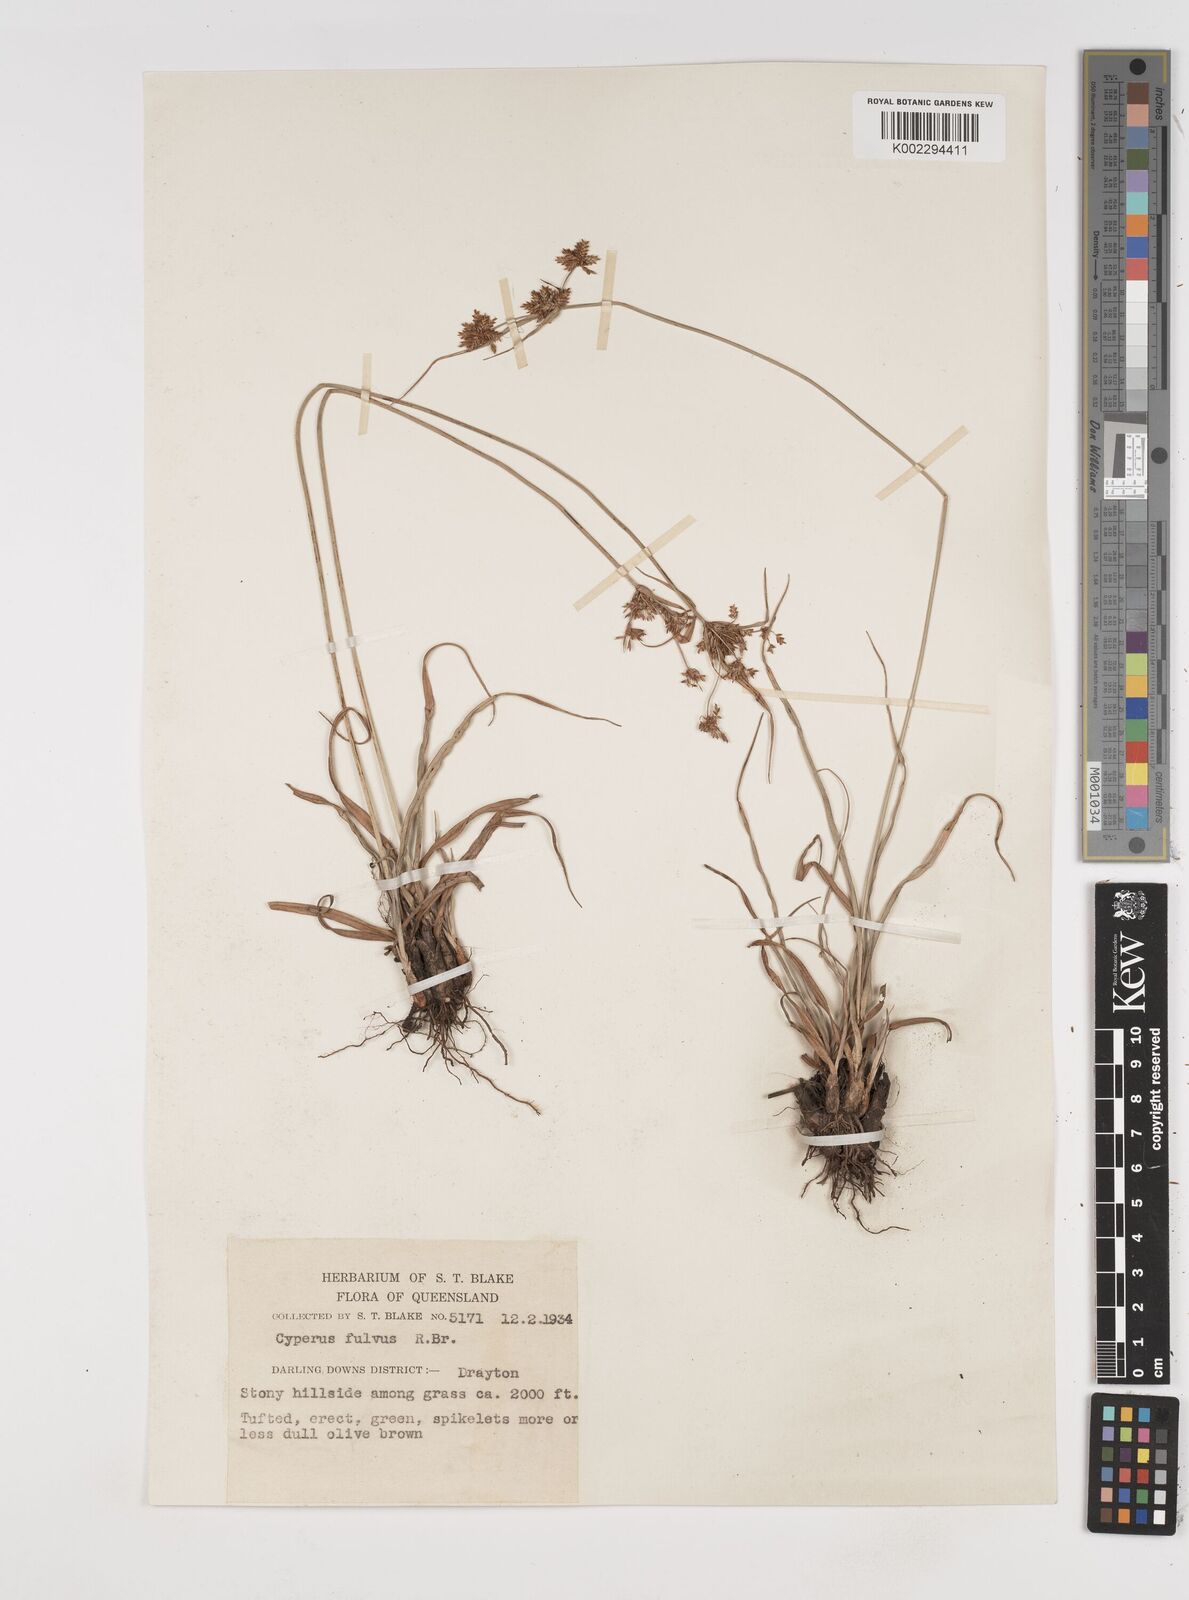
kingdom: Plantae
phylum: Tracheophyta
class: Liliopsida
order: Poales
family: Cyperaceae
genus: Cyperus
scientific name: Cyperus fulvus
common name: Sticky sedge
